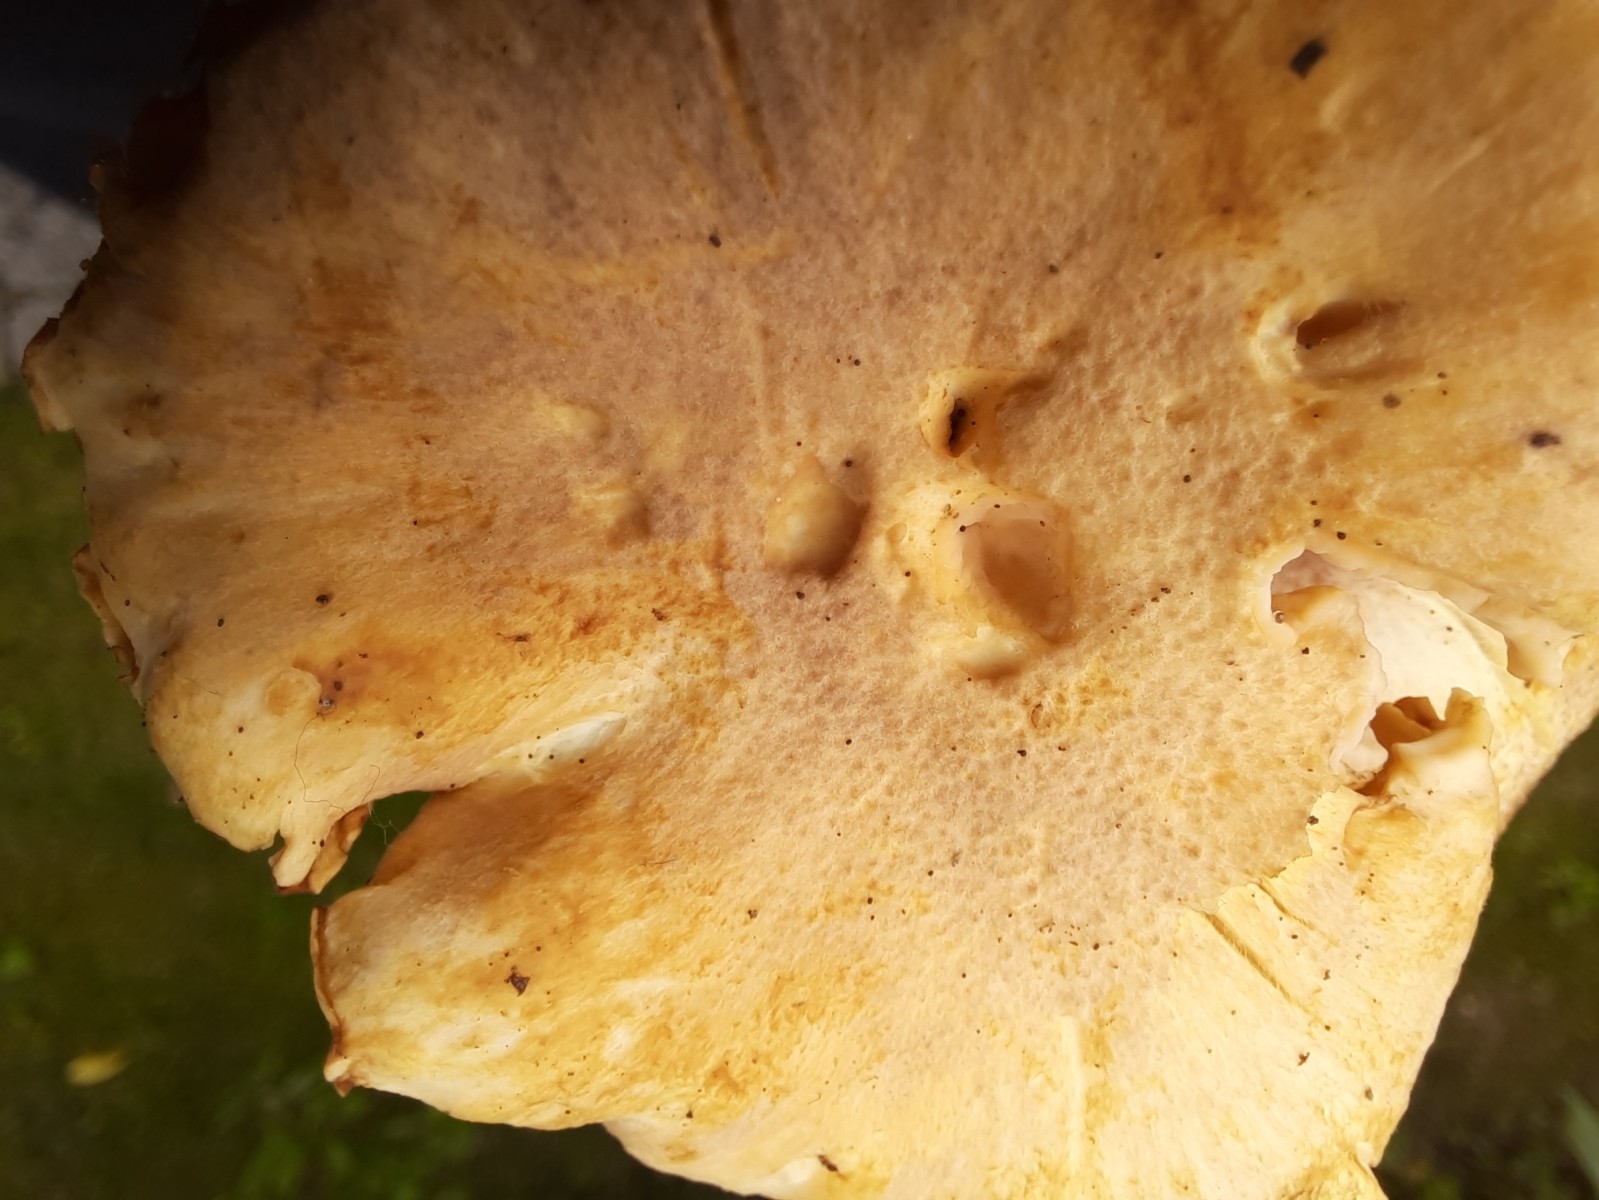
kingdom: Fungi
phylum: Basidiomycota
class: Agaricomycetes
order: Cantharellales
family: Hydnaceae
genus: Cantharellus
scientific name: Cantharellus amethysteus
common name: ametyst-kantarel
